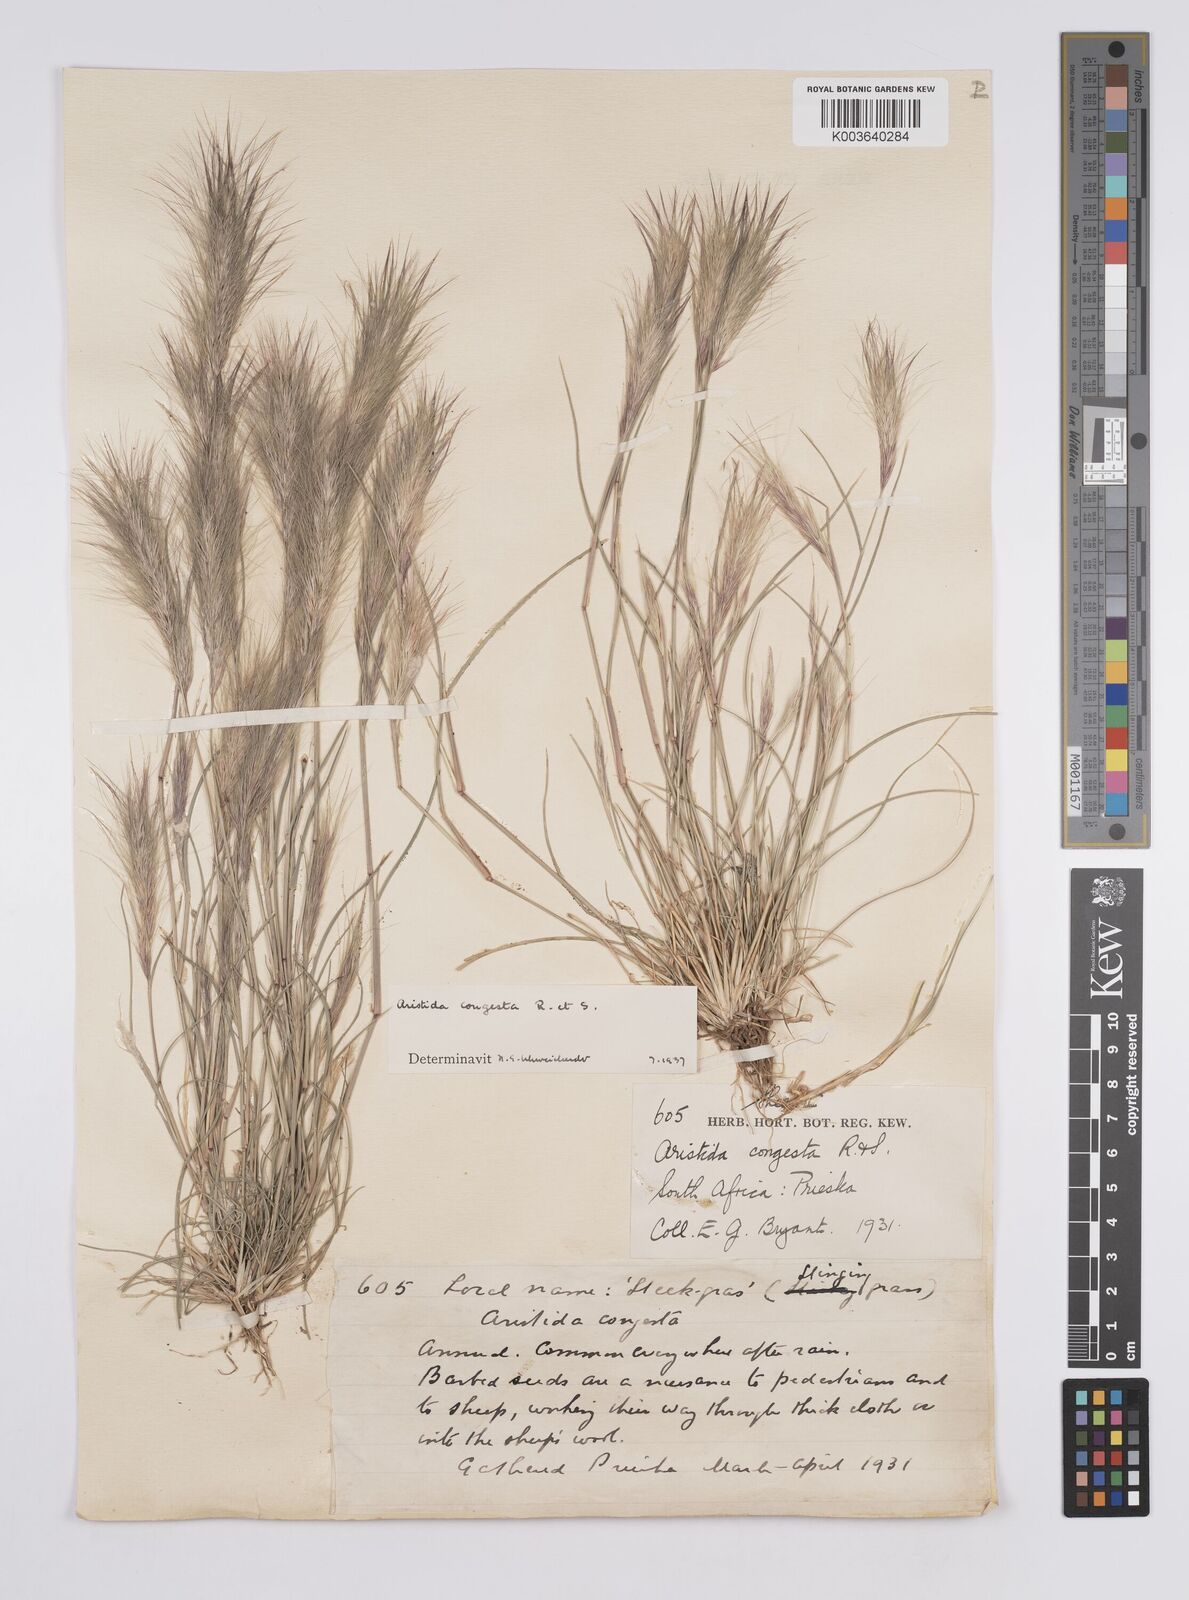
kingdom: Plantae
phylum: Tracheophyta
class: Liliopsida
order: Poales
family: Poaceae
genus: Aristida
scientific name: Aristida congesta
